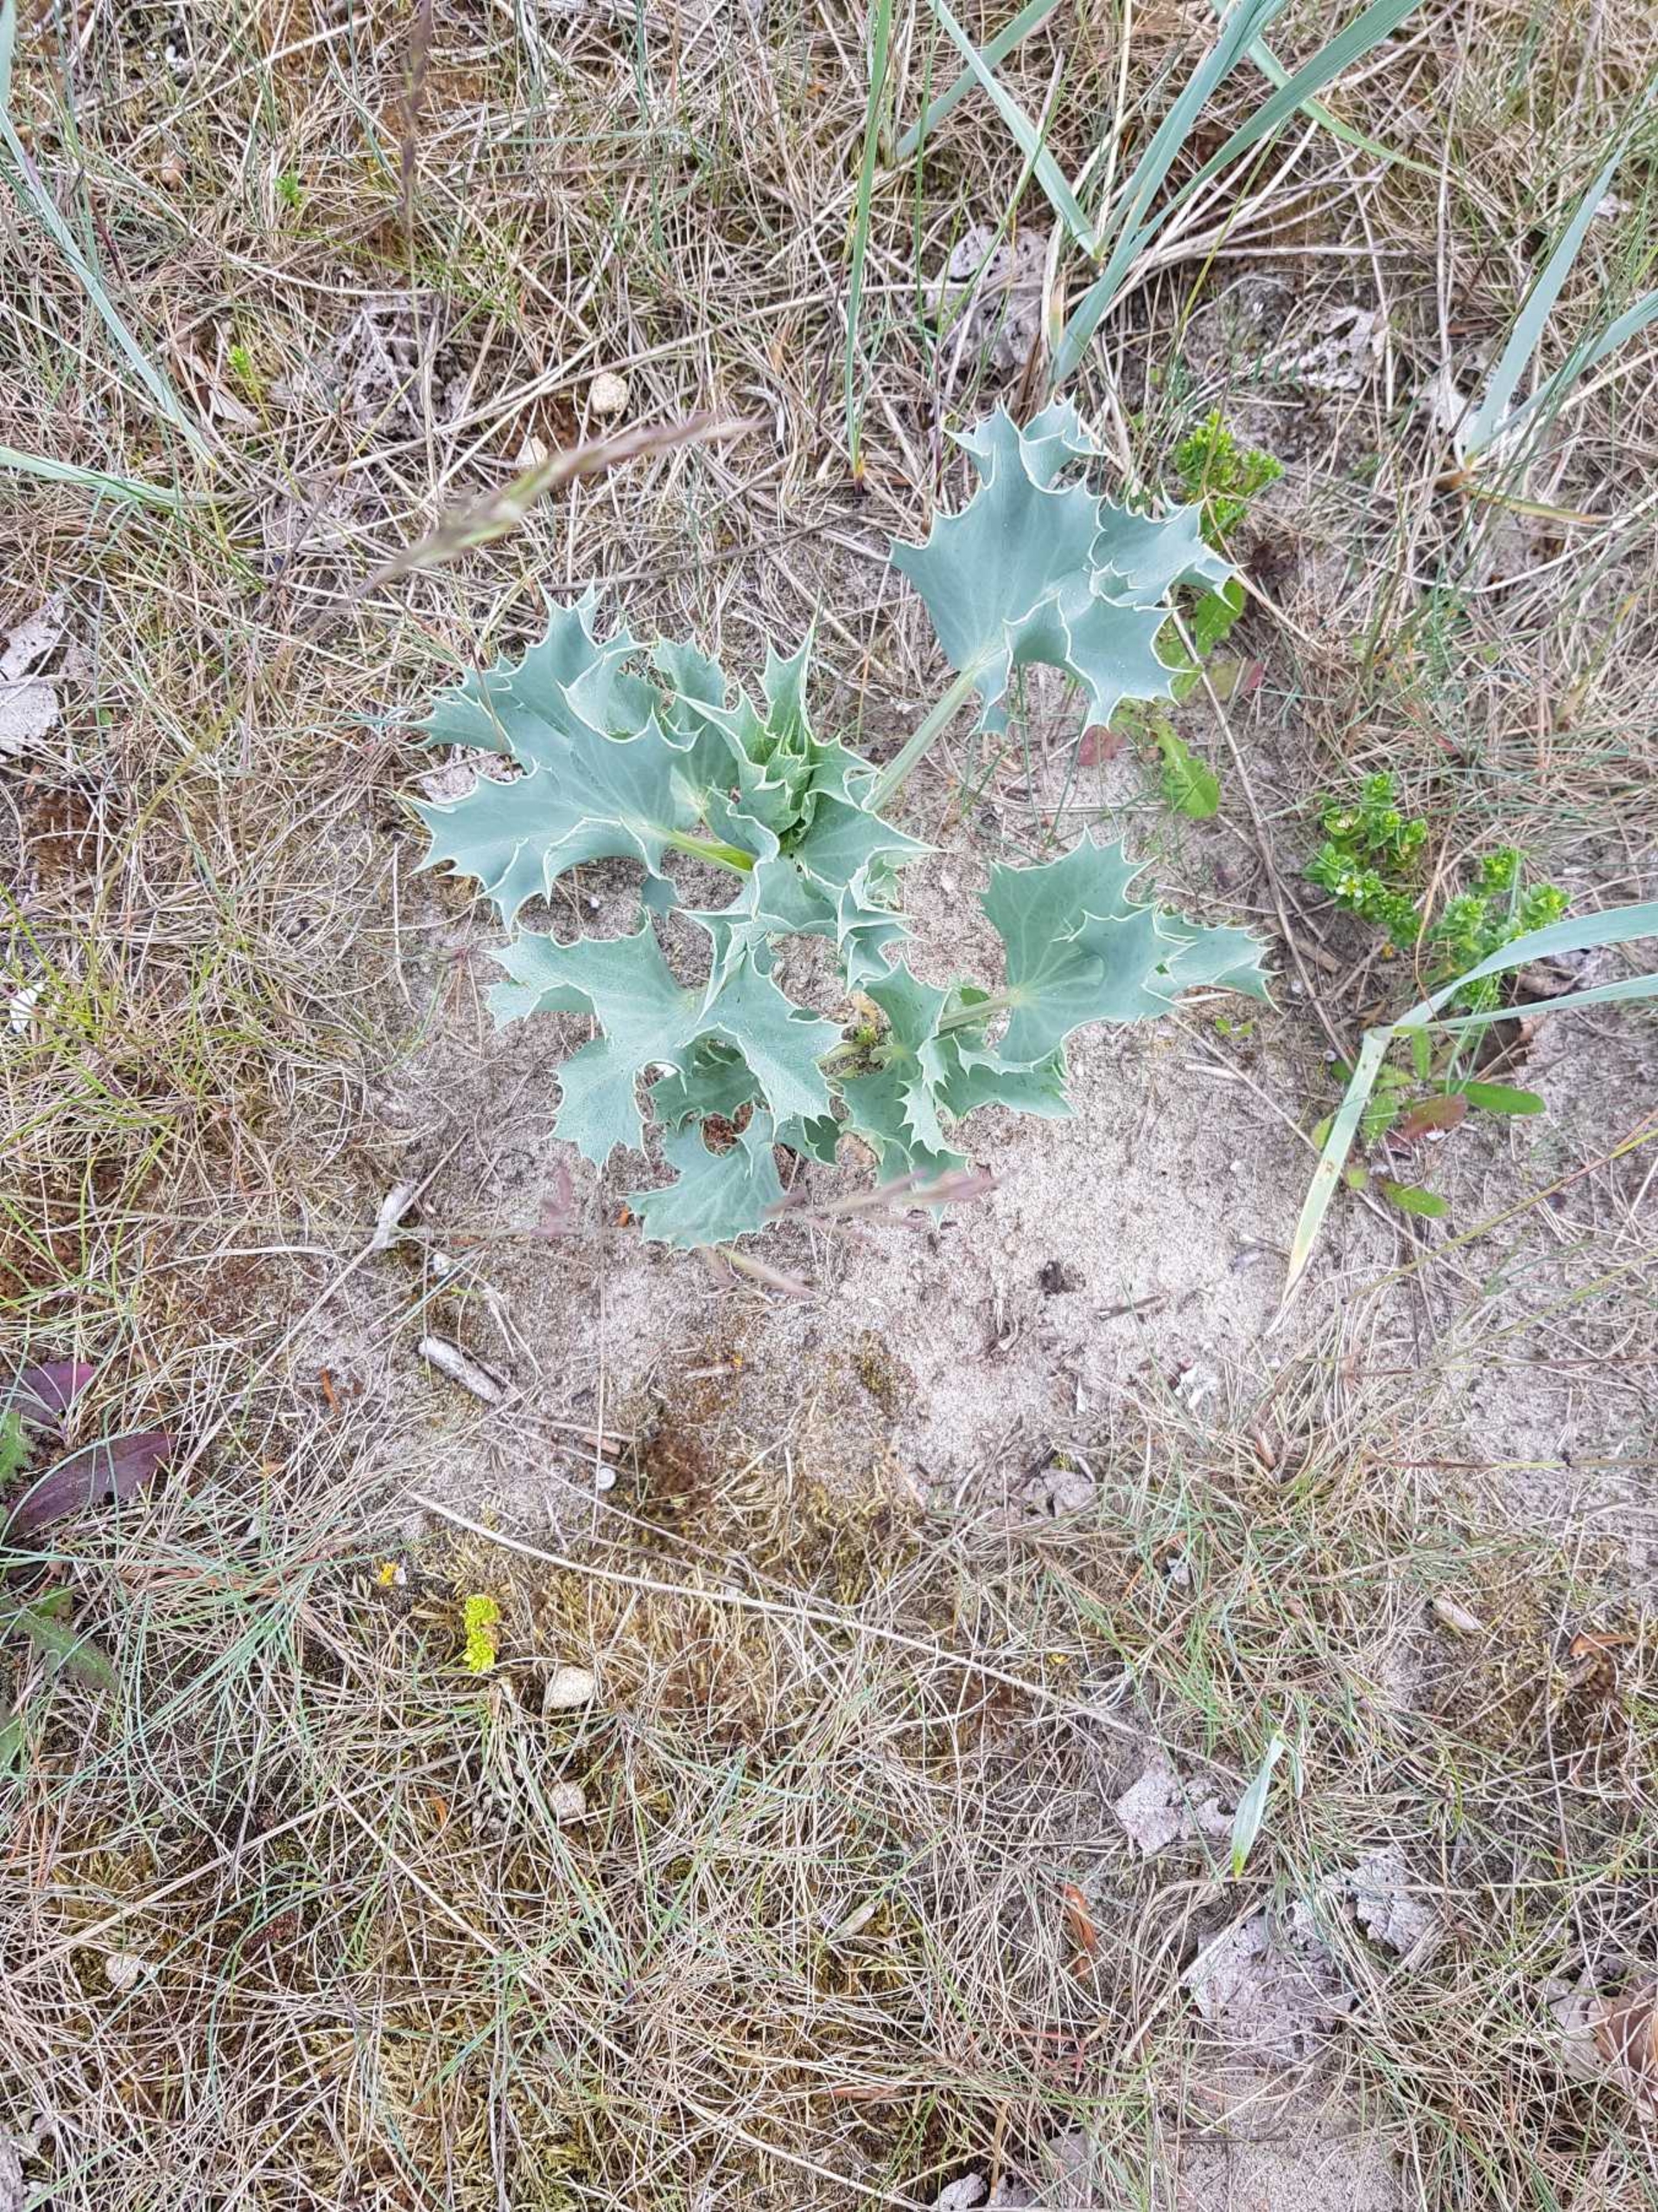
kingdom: Plantae
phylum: Tracheophyta
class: Magnoliopsida
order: Apiales
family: Apiaceae
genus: Eryngium
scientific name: Eryngium maritimum
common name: Strand-mandstro
